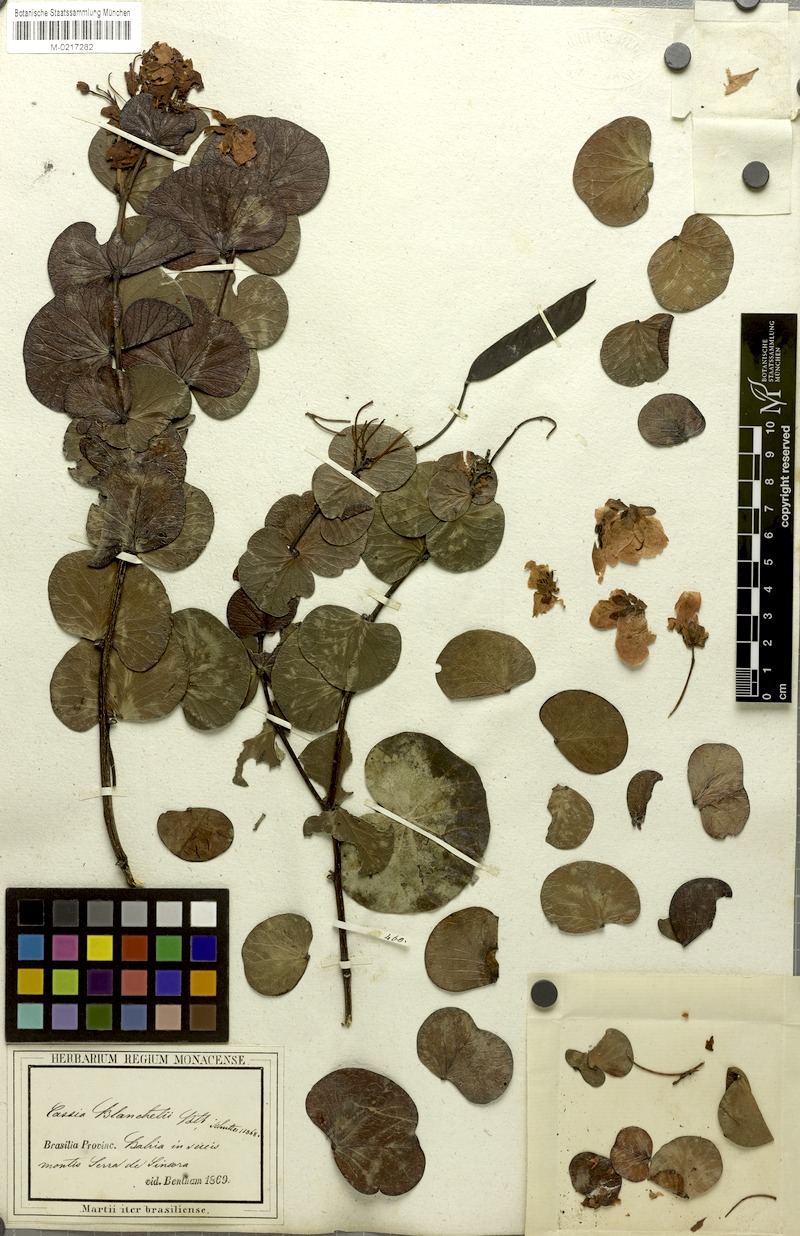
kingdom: Plantae
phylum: Tracheophyta
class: Magnoliopsida
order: Fabales
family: Fabaceae
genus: Chamaecrista
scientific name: Chamaecrista blanchetii
